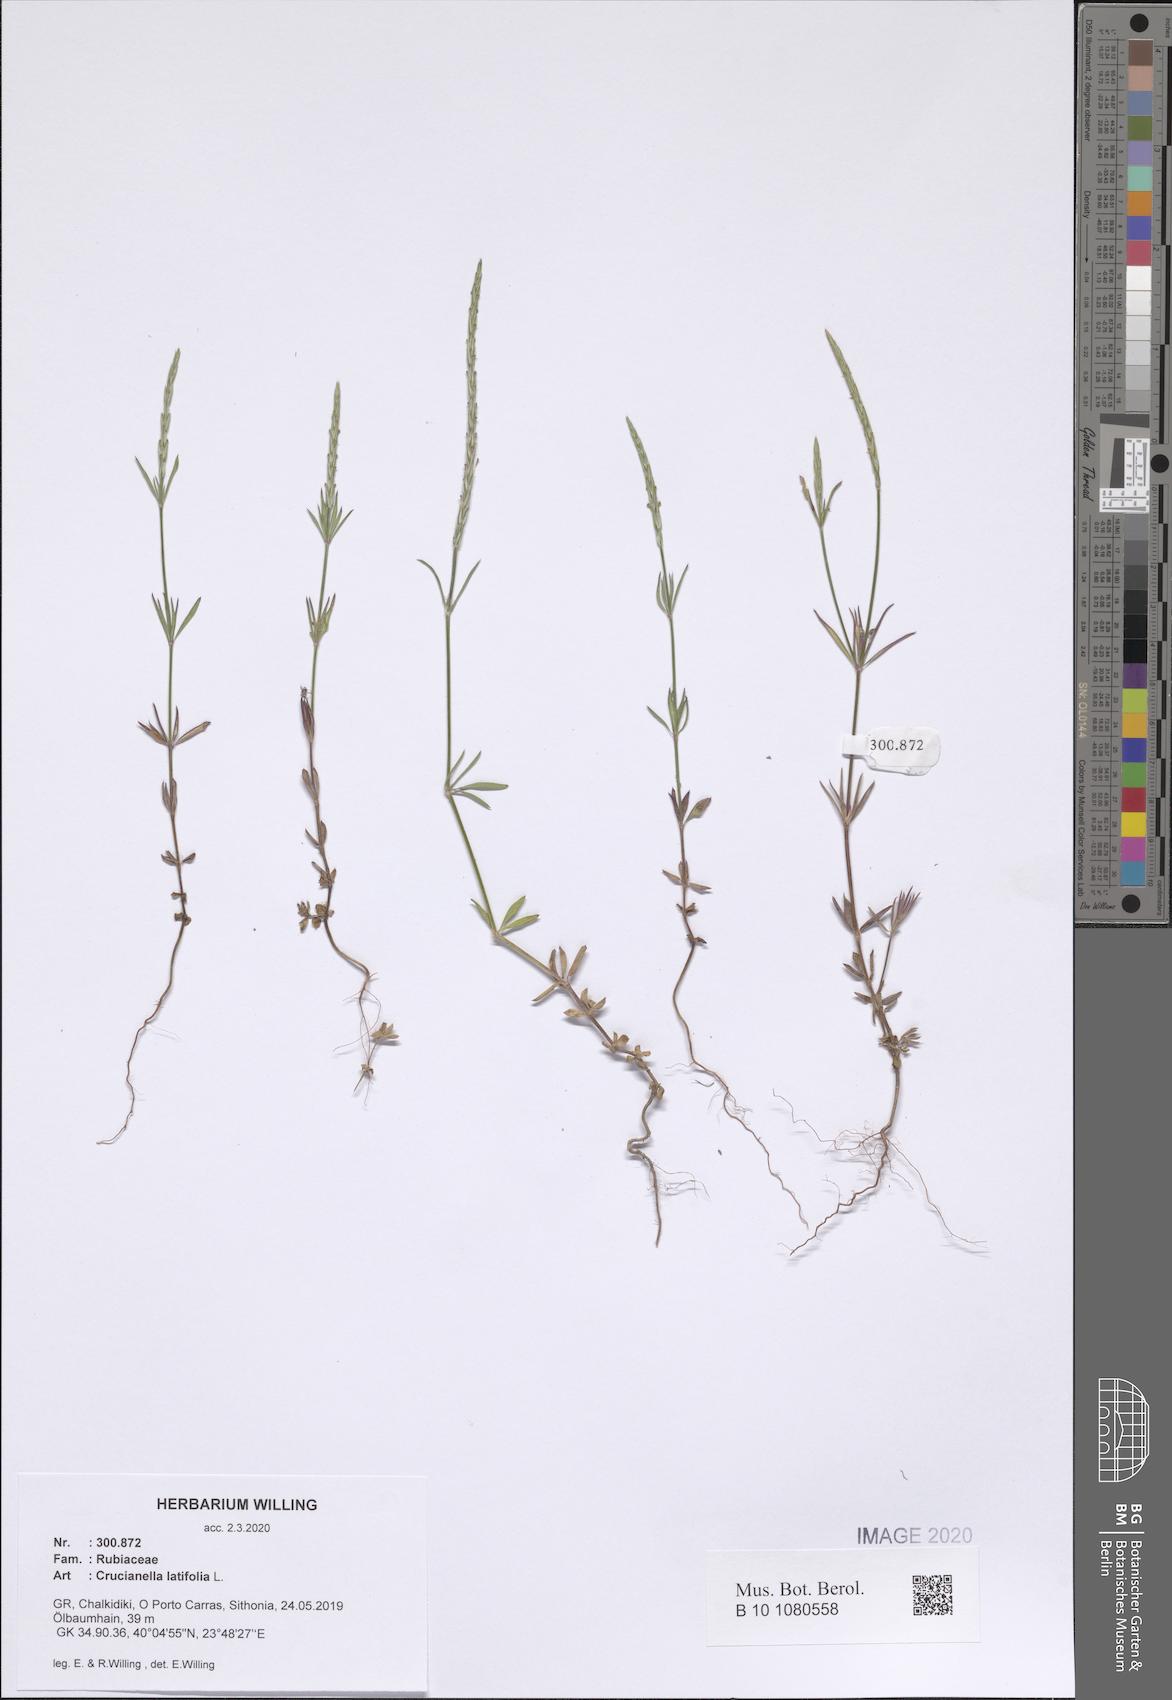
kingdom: Plantae
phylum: Tracheophyta
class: Magnoliopsida
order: Gentianales
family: Rubiaceae
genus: Crucianella
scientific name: Crucianella latifolia
